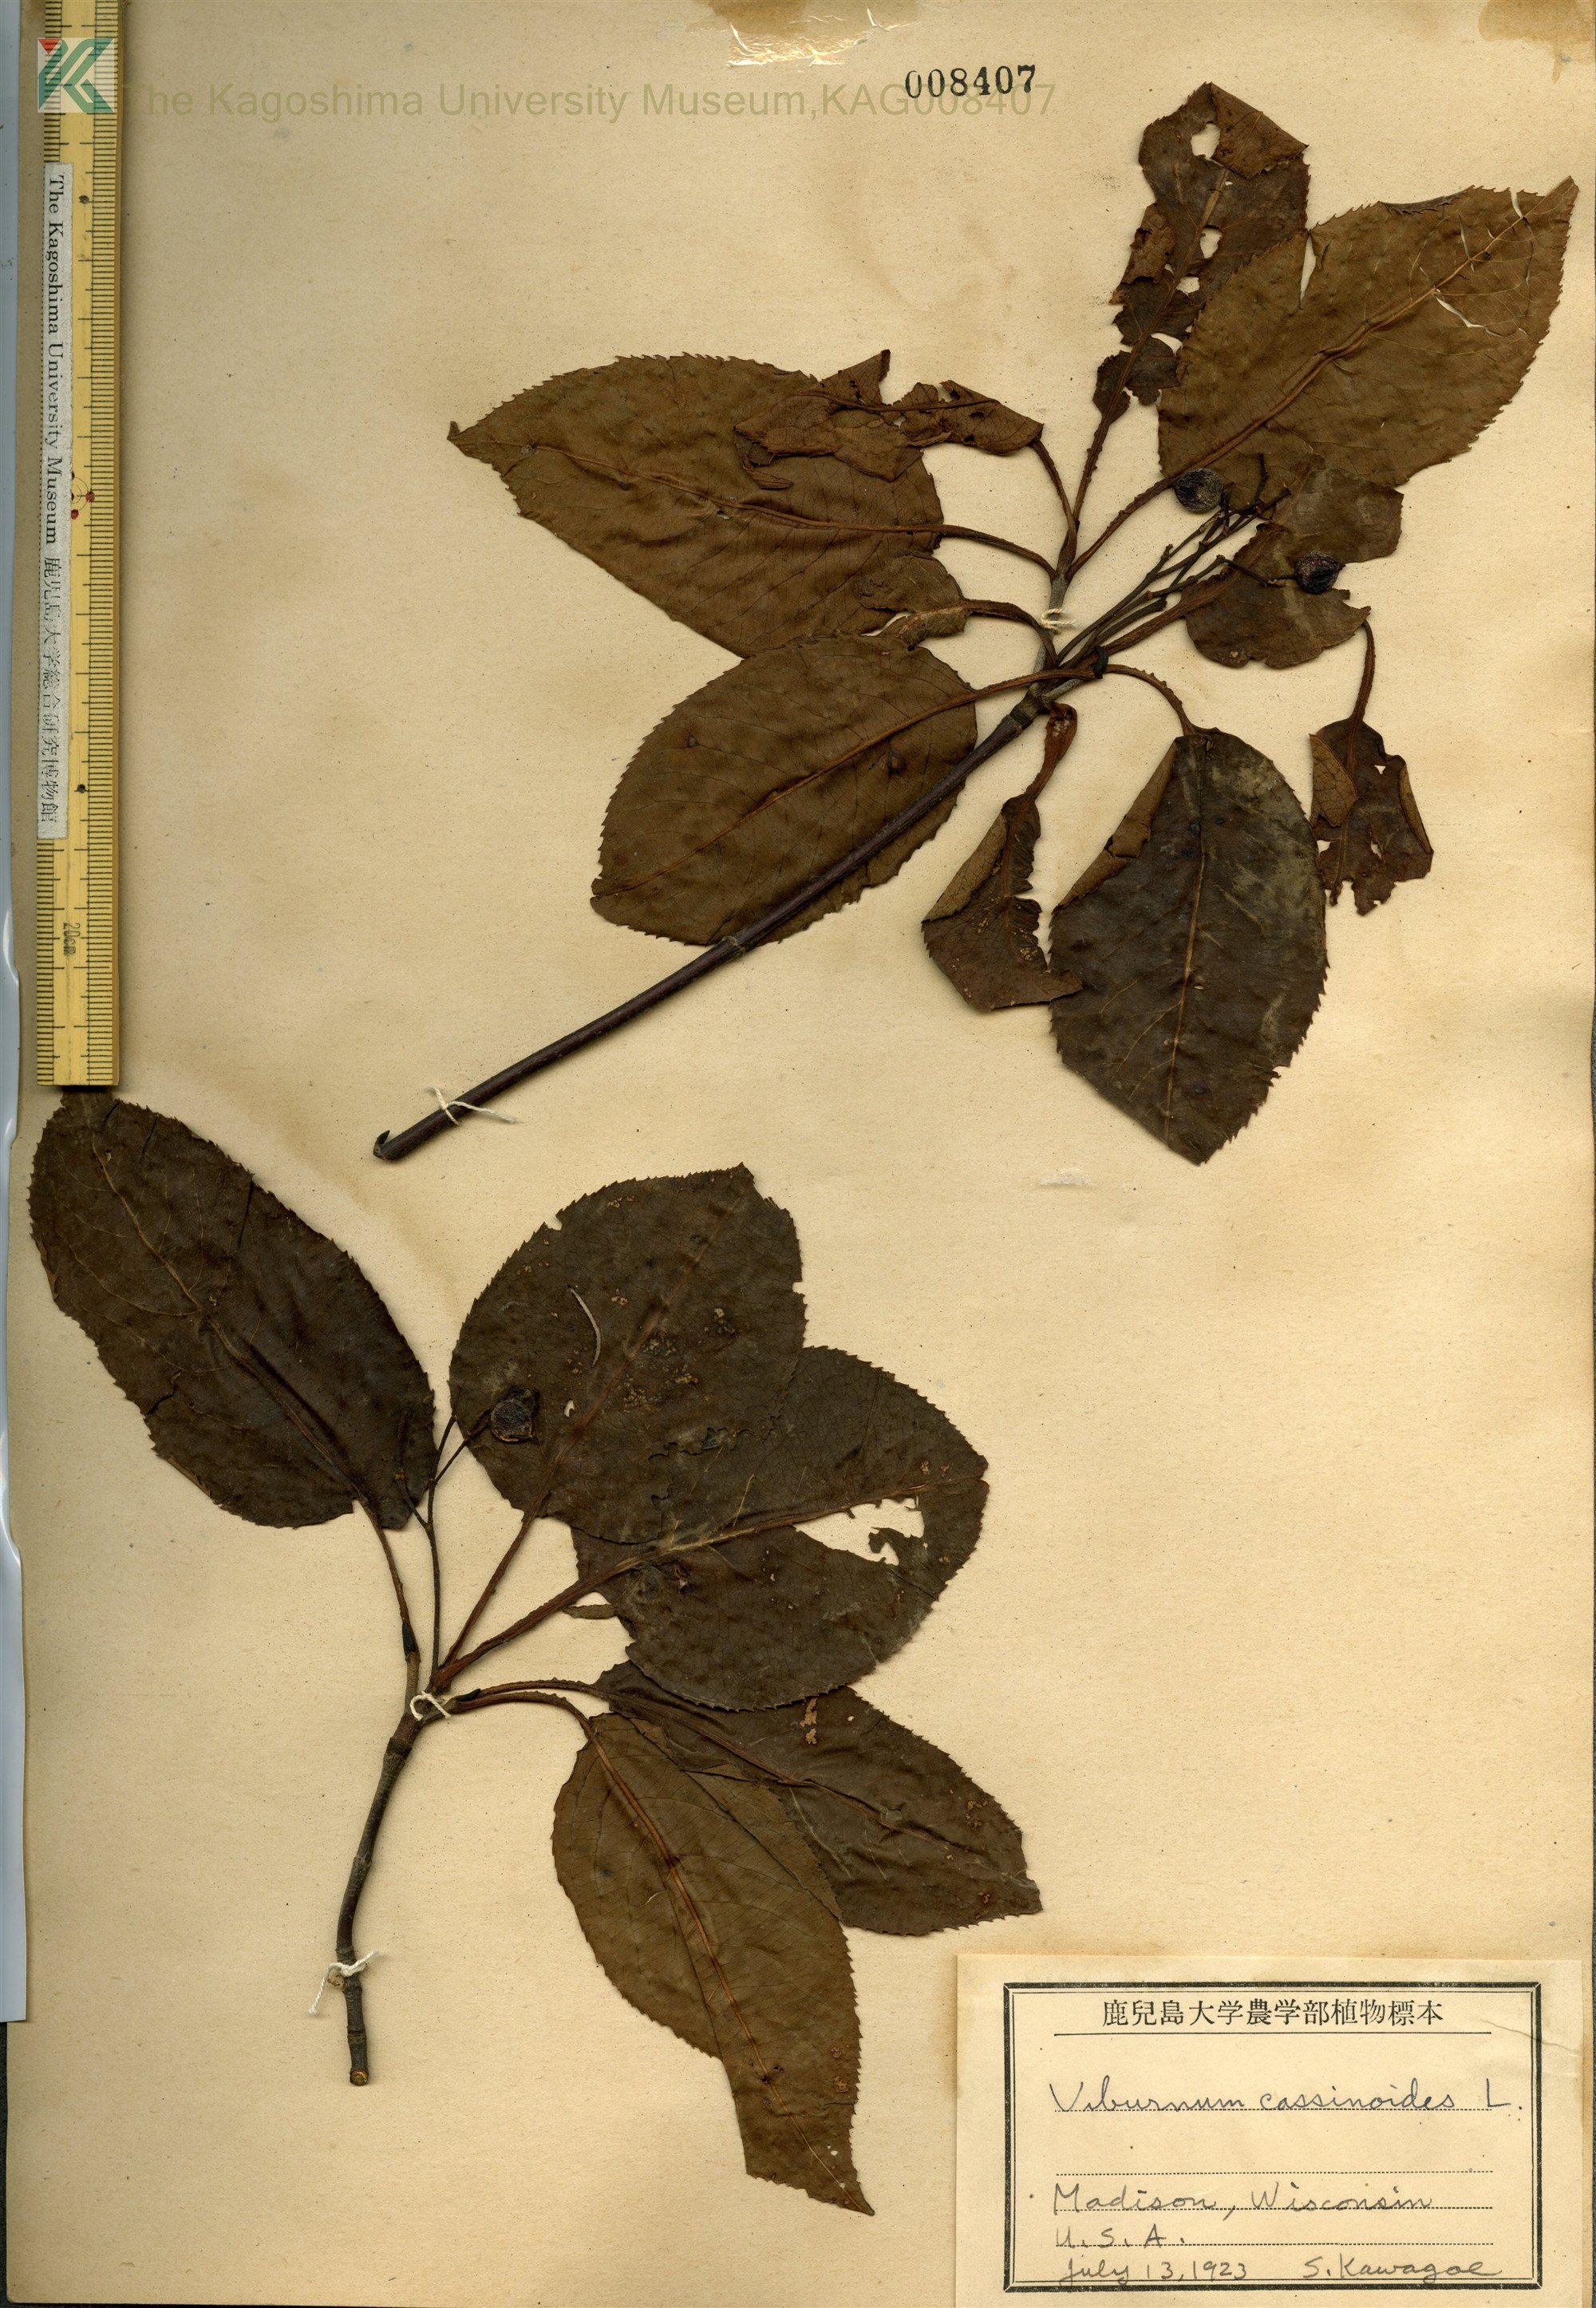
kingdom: Plantae
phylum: Tracheophyta
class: Magnoliopsida
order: Dipsacales
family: Viburnaceae
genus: Viburnum
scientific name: Viburnum cassinoides
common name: Swamp haw
